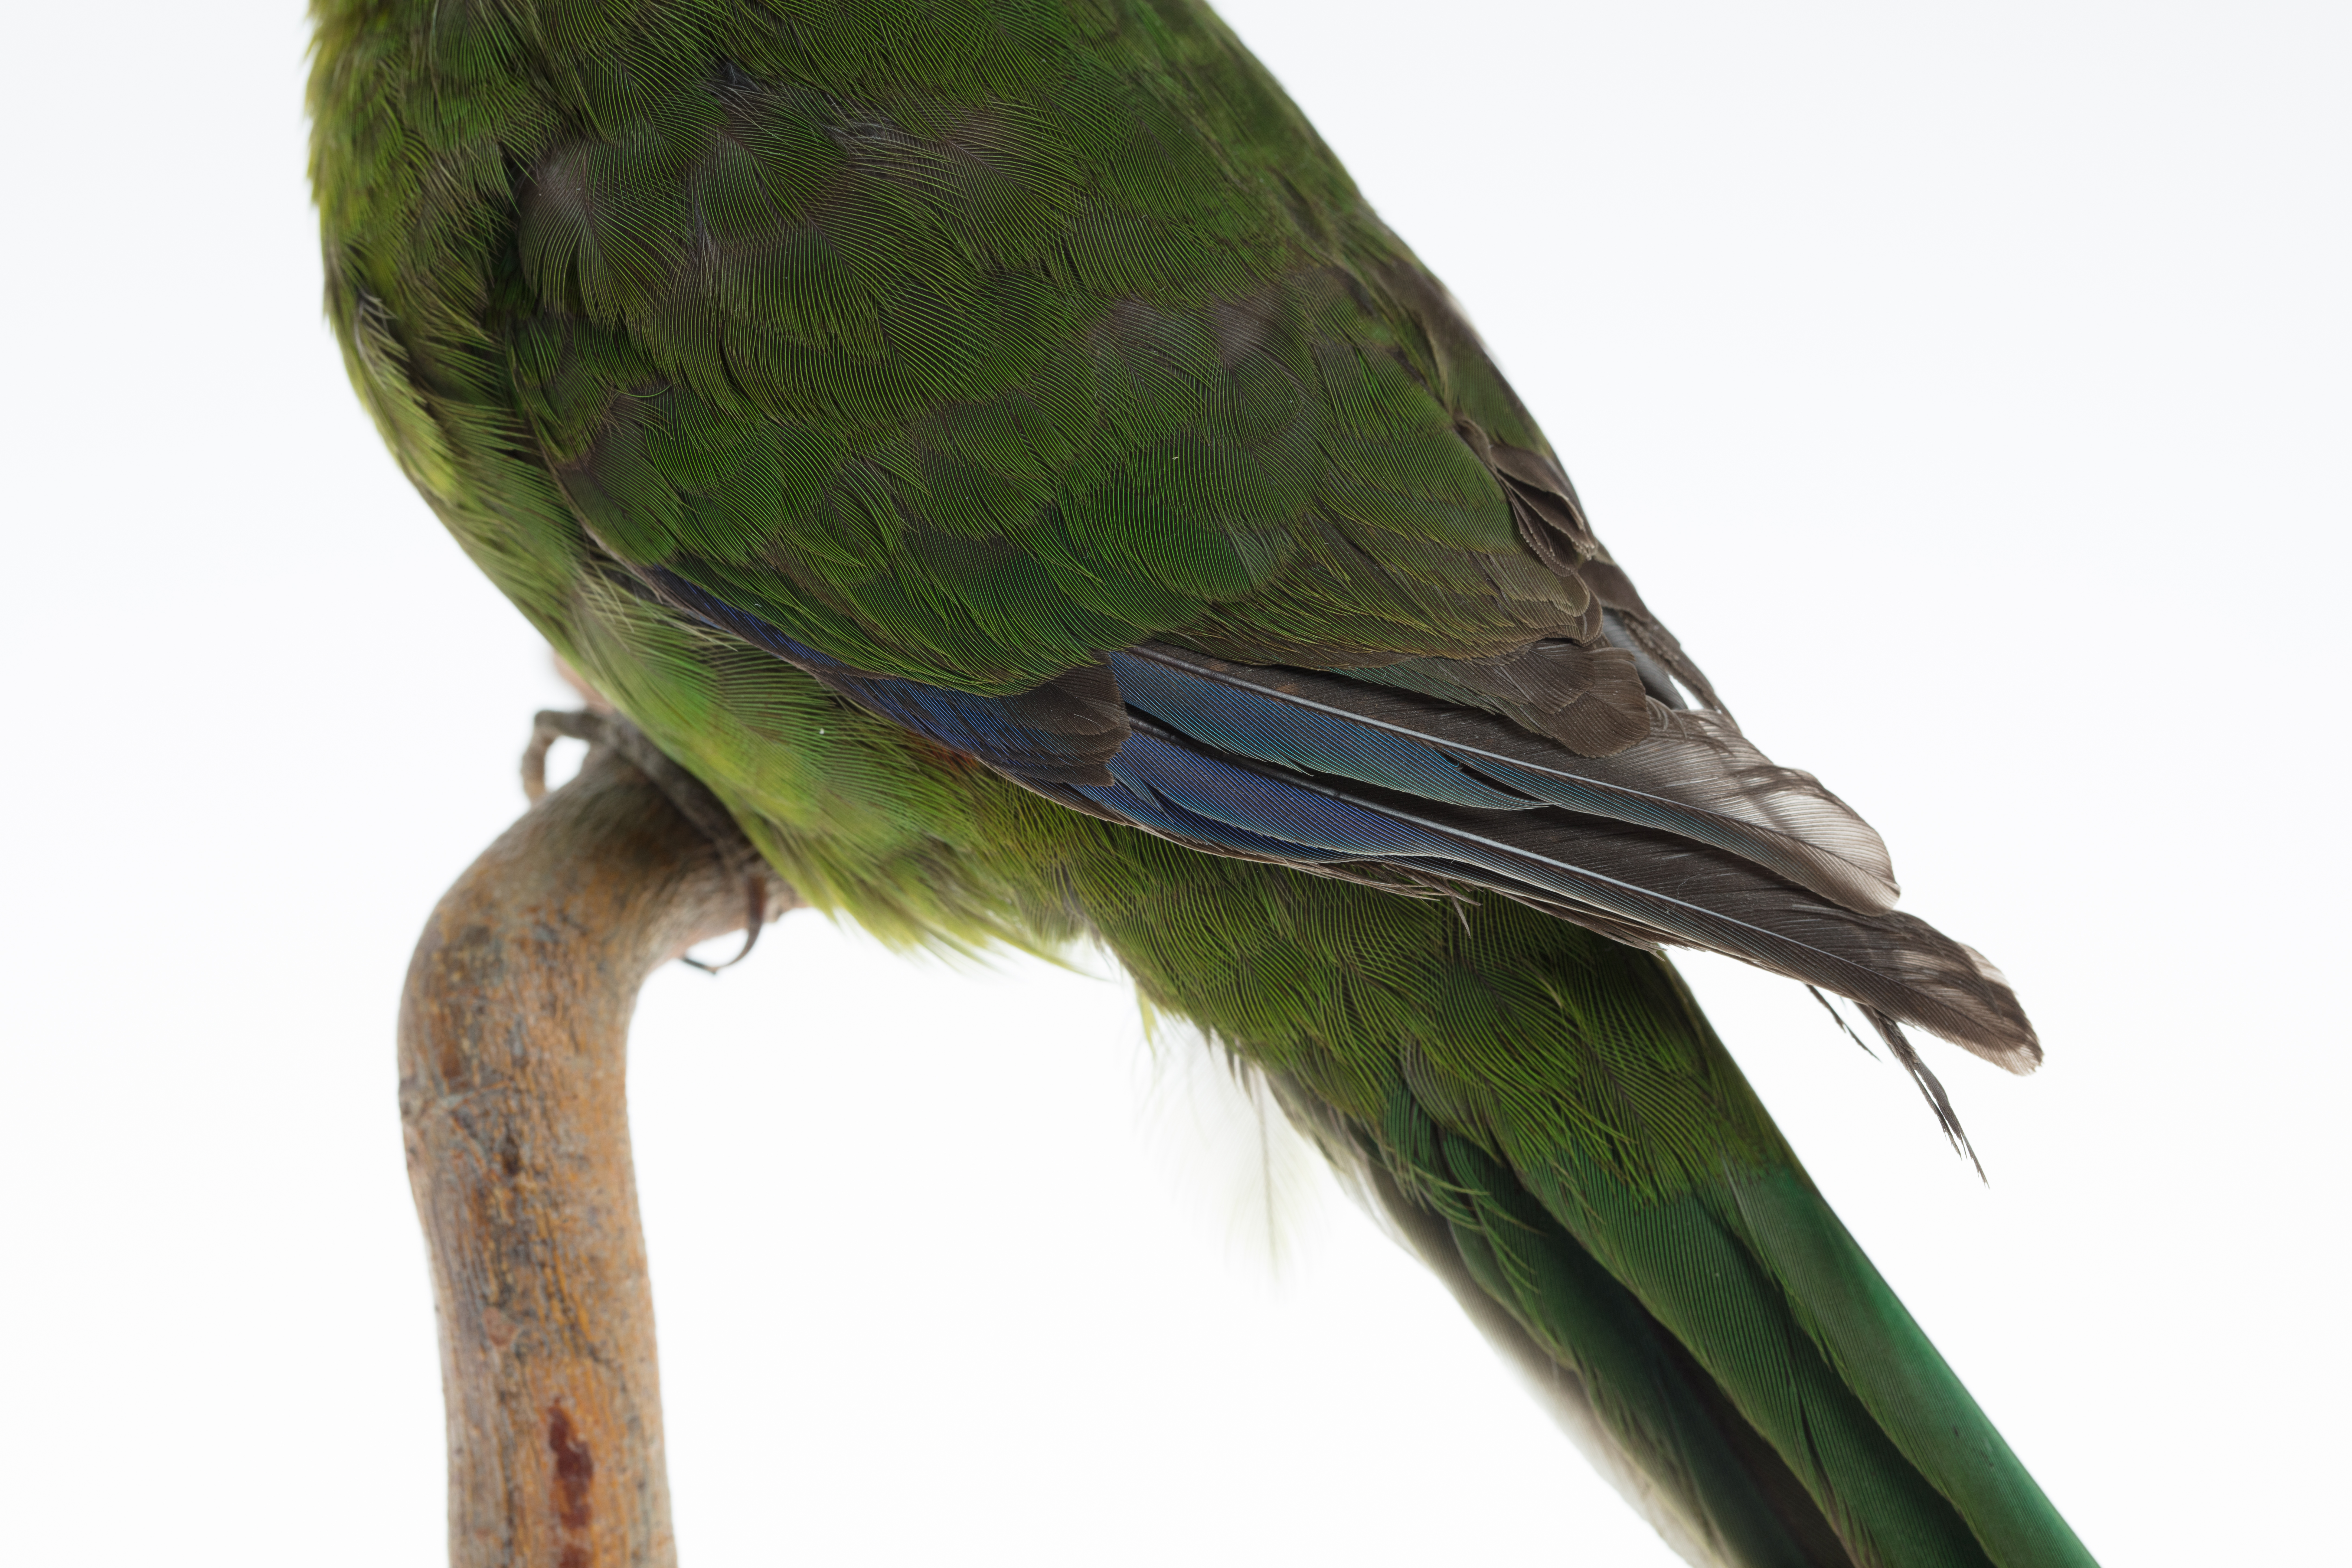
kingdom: Animalia
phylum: Chordata
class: Aves
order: Psittaciformes
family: Psittacidae
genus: Cyanoramphus
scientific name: Cyanoramphus auriceps
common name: Yellow-crowned parakeet
